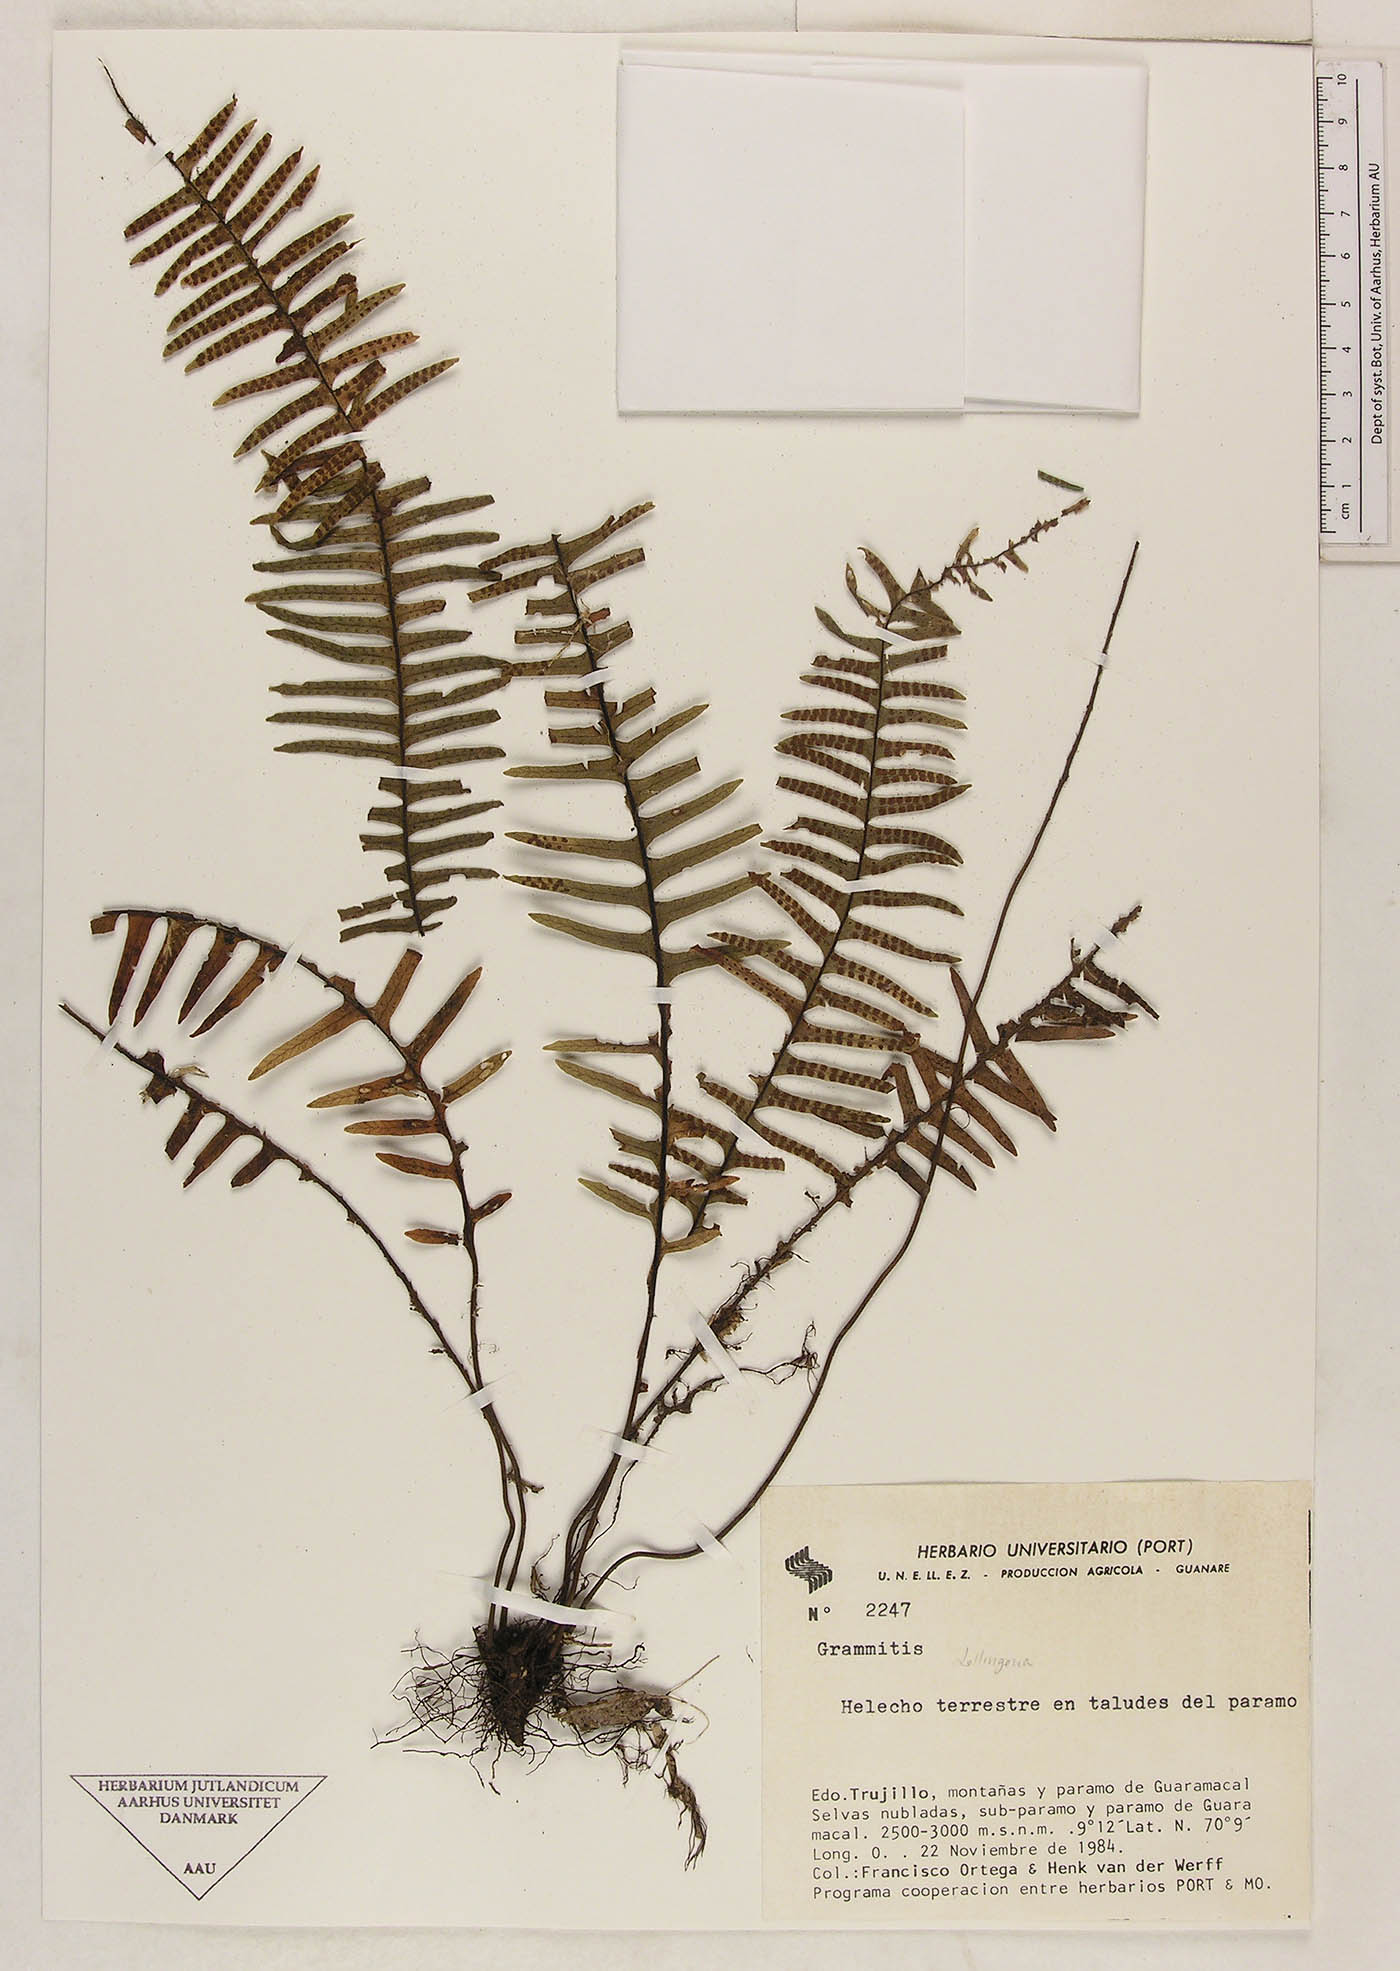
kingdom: Plantae
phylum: Tracheophyta
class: Polypodiopsida
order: Polypodiales
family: Polypodiaceae
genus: Lellingeria
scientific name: Lellingeria major
